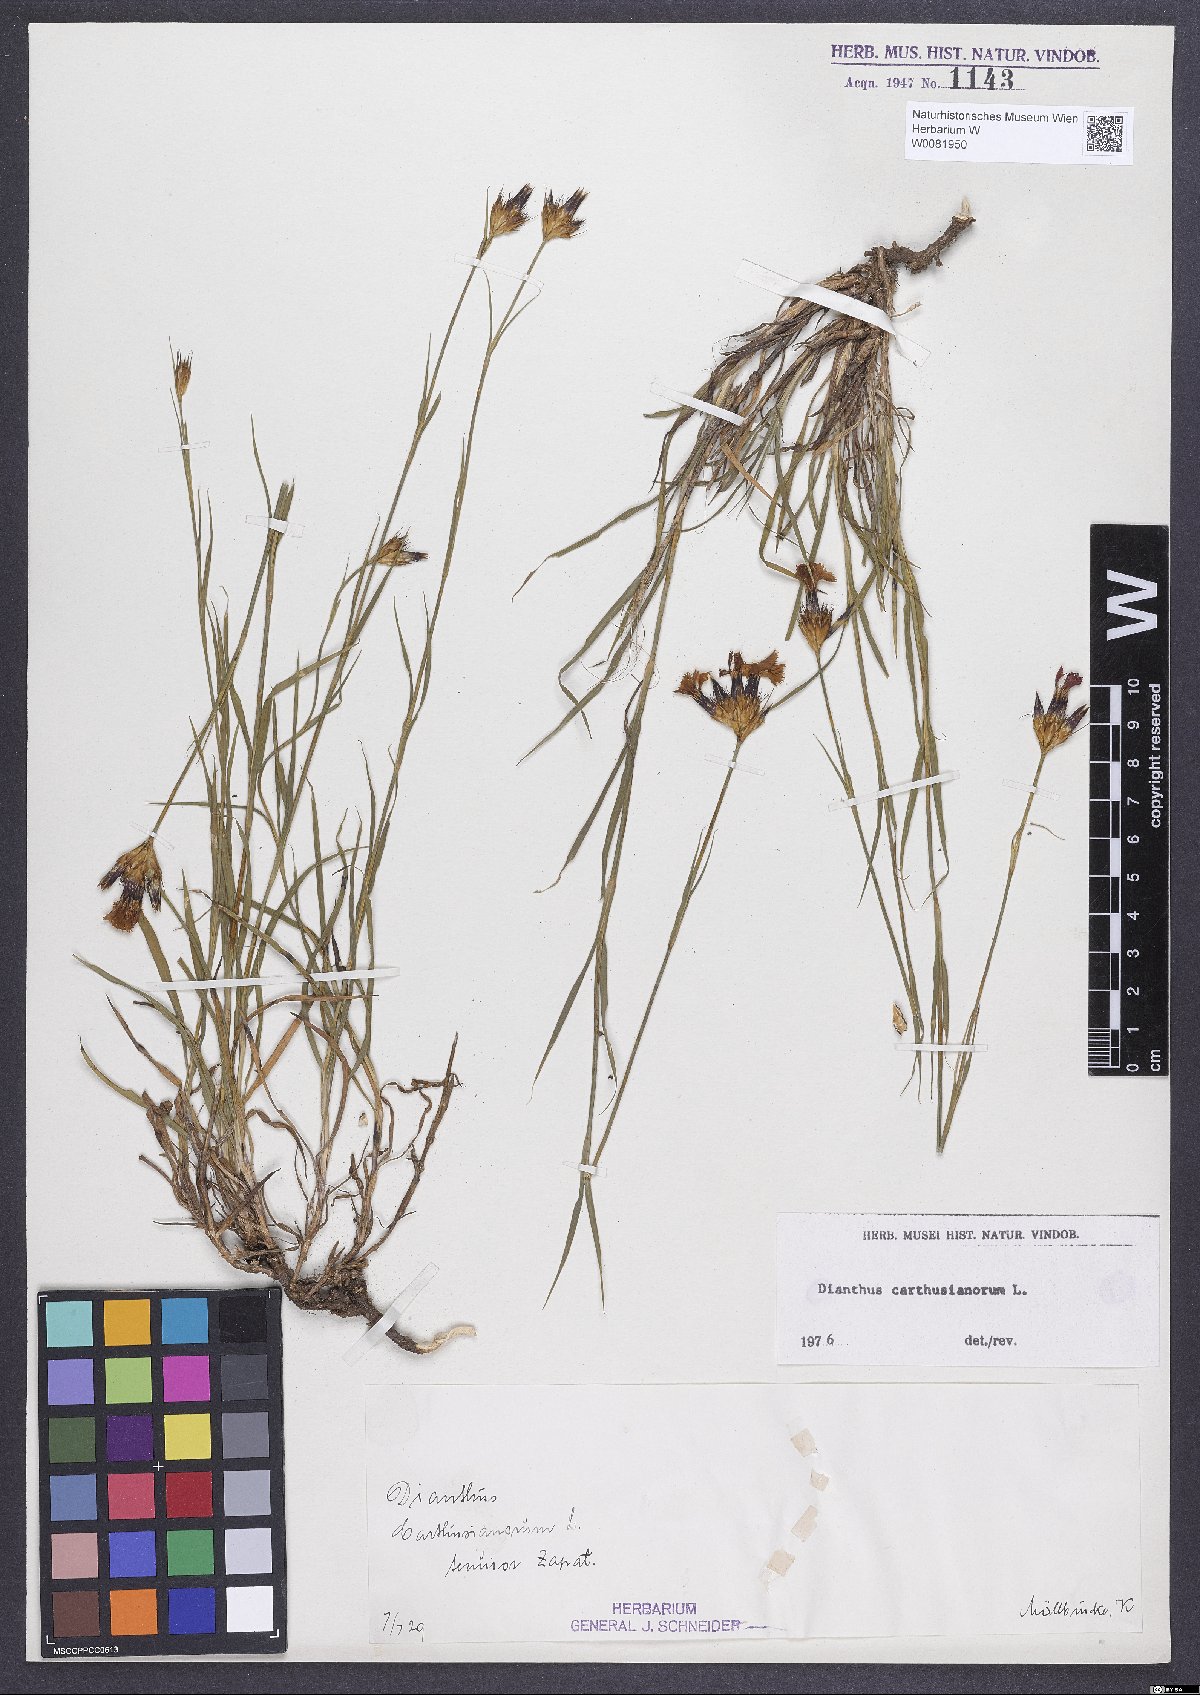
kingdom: Plantae
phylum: Tracheophyta
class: Magnoliopsida
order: Caryophyllales
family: Caryophyllaceae
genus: Dianthus
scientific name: Dianthus carthusianorum
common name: Carthusian pink
